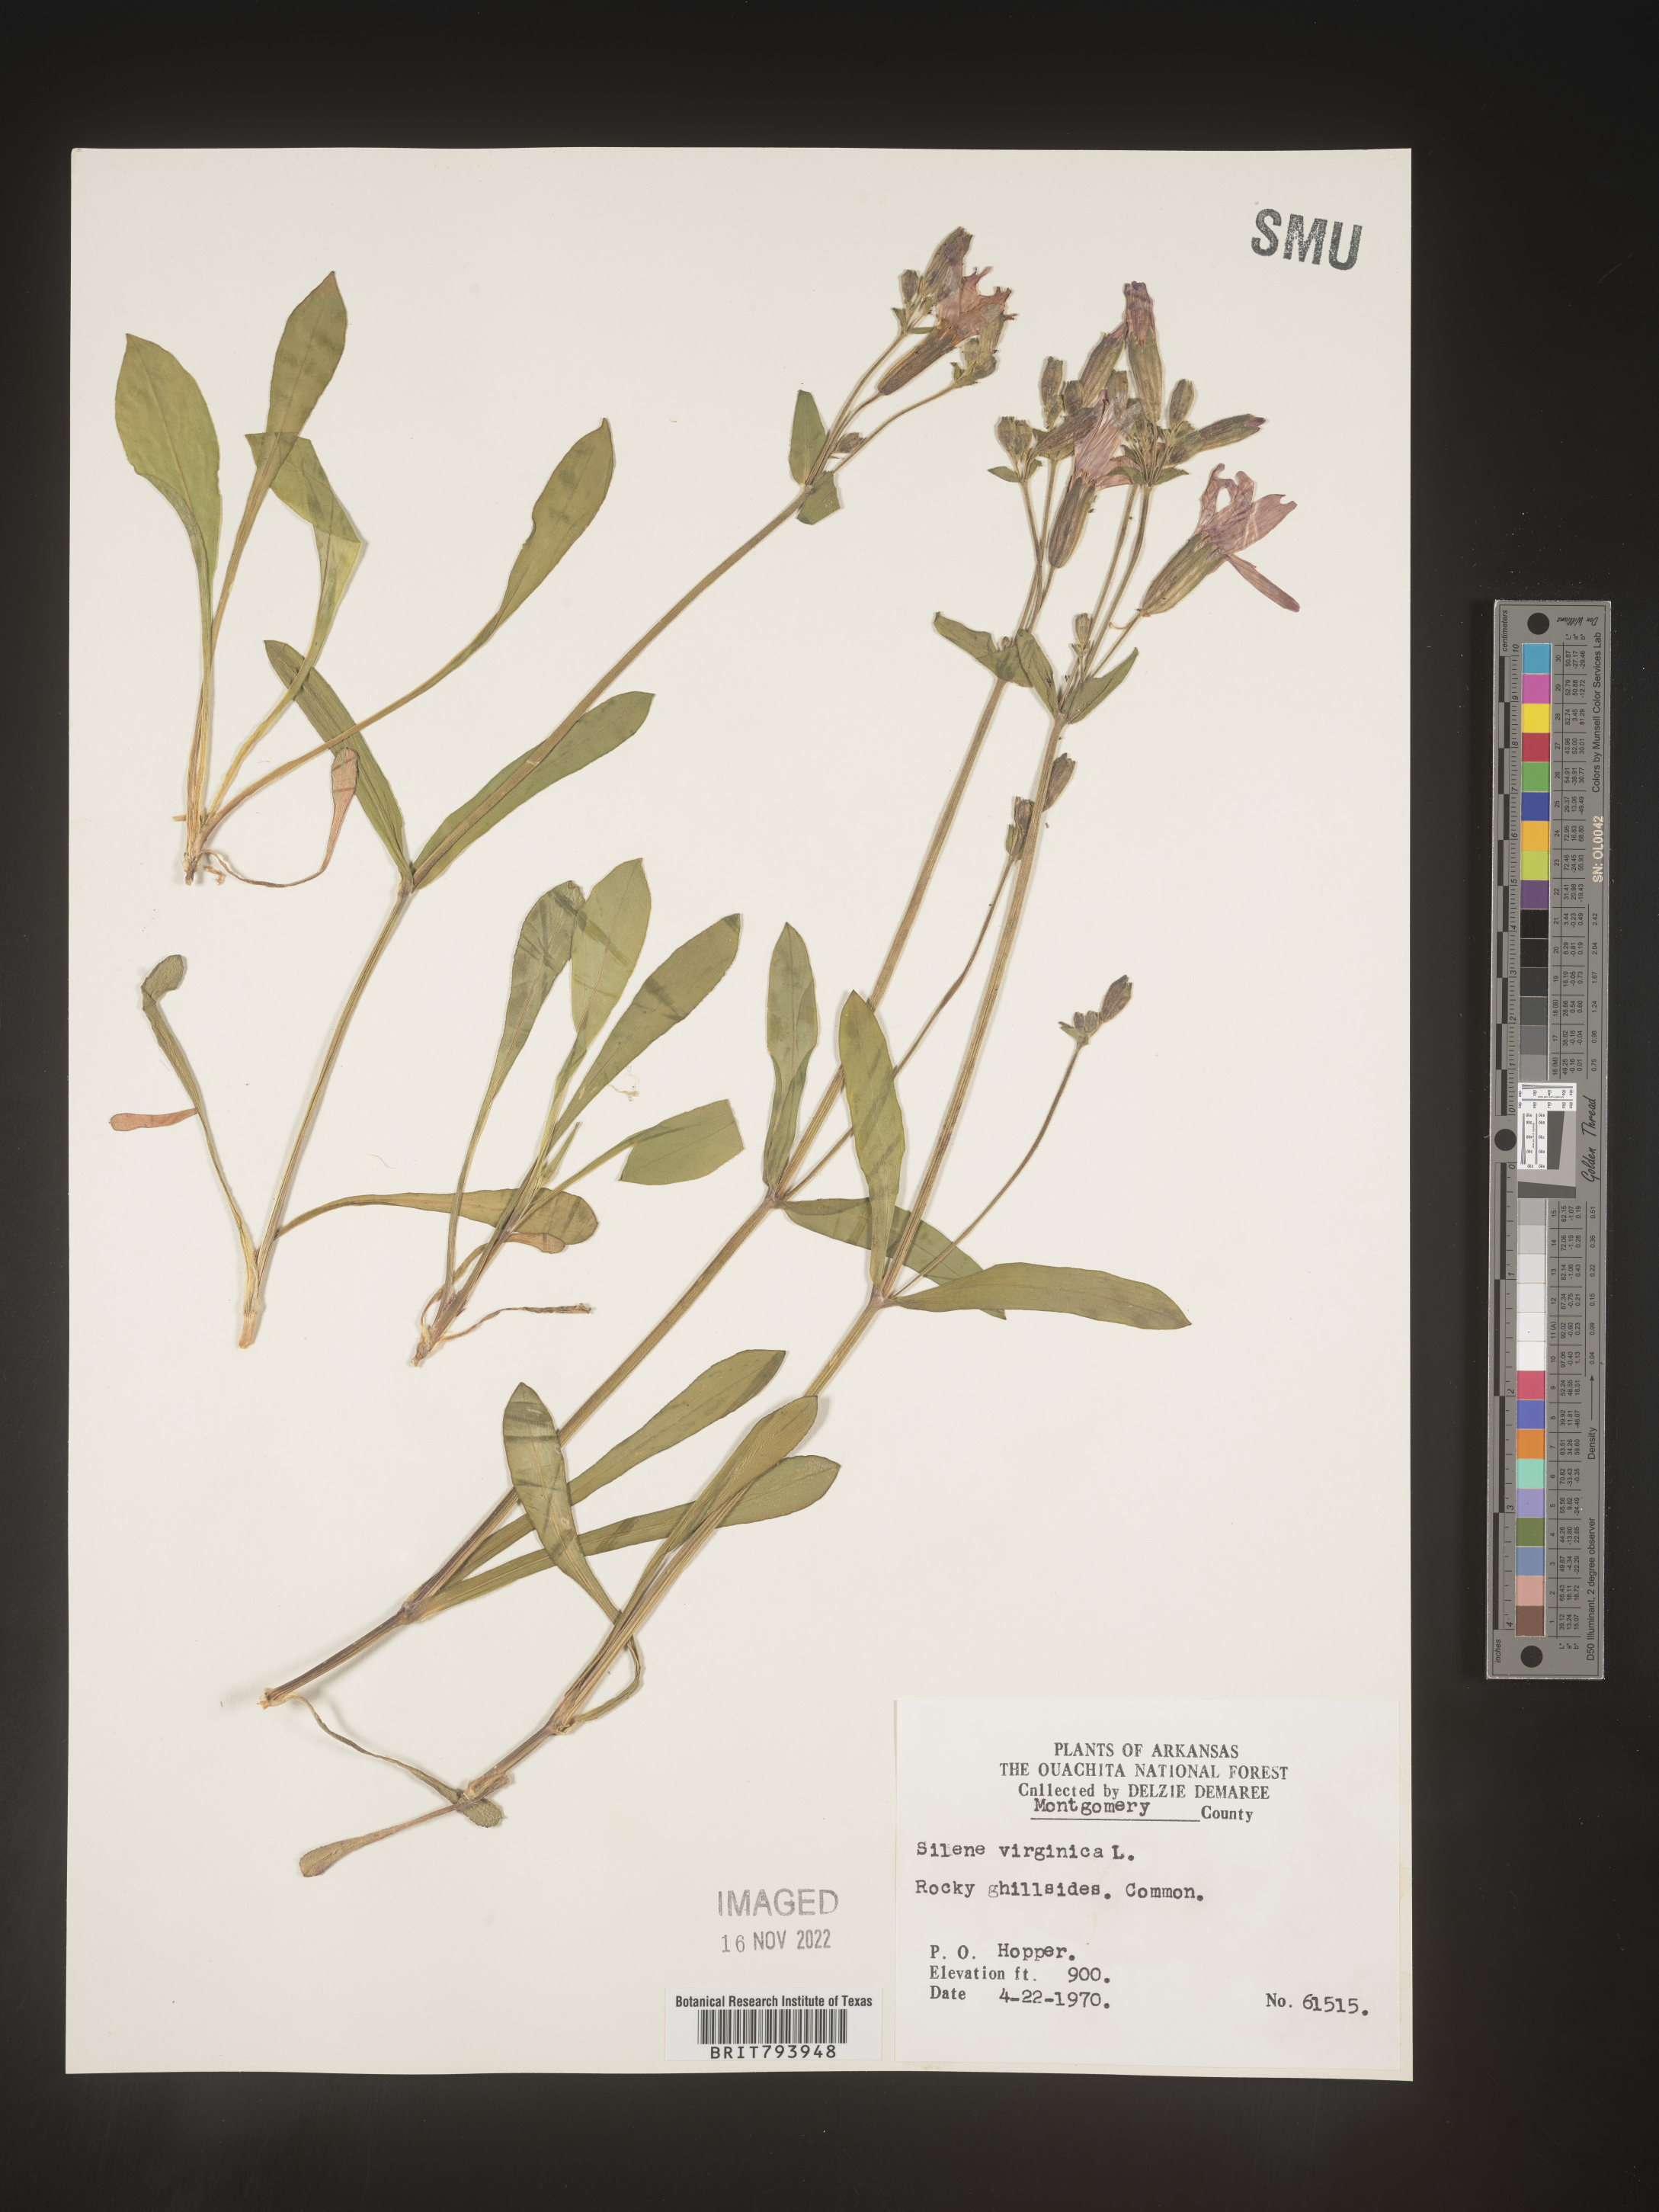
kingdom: Plantae
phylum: Tracheophyta
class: Magnoliopsida
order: Caryophyllales
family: Caryophyllaceae
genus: Silene
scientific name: Silene virginica
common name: Fire-pink
